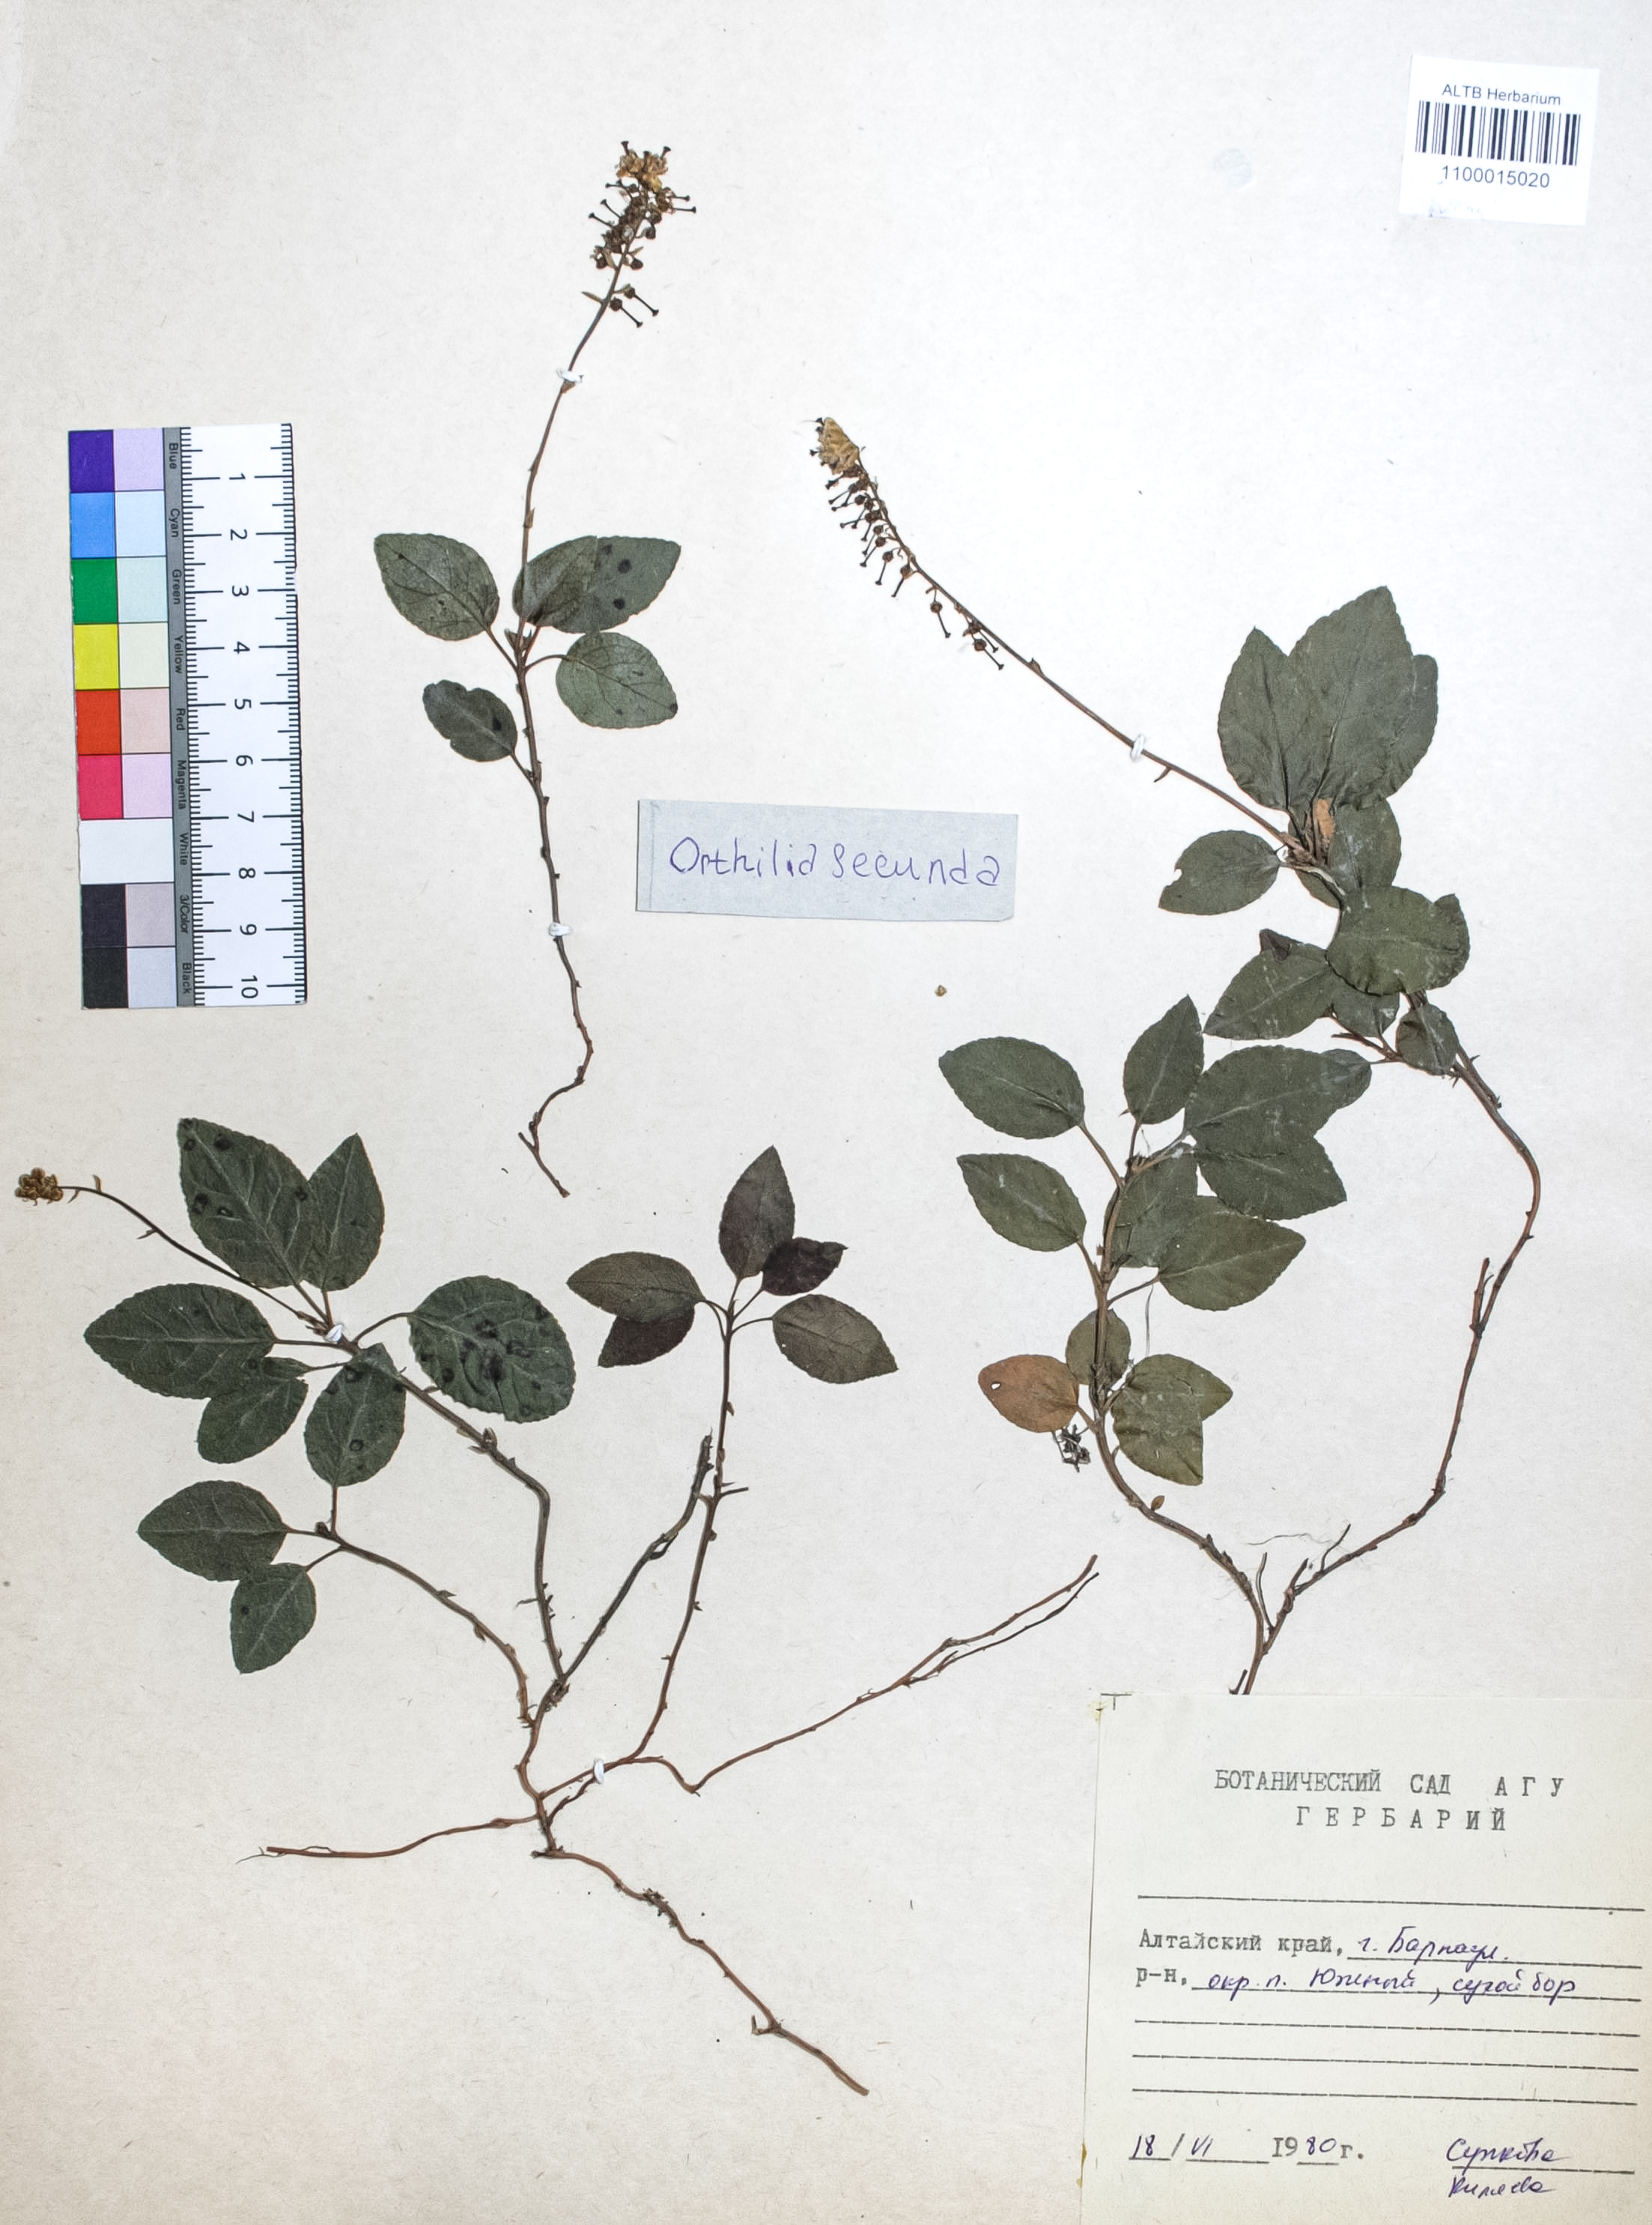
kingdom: Plantae
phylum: Tracheophyta
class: Magnoliopsida
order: Ericales
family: Ericaceae
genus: Orthilia
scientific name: Orthilia secunda
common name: One-sided orthilia
